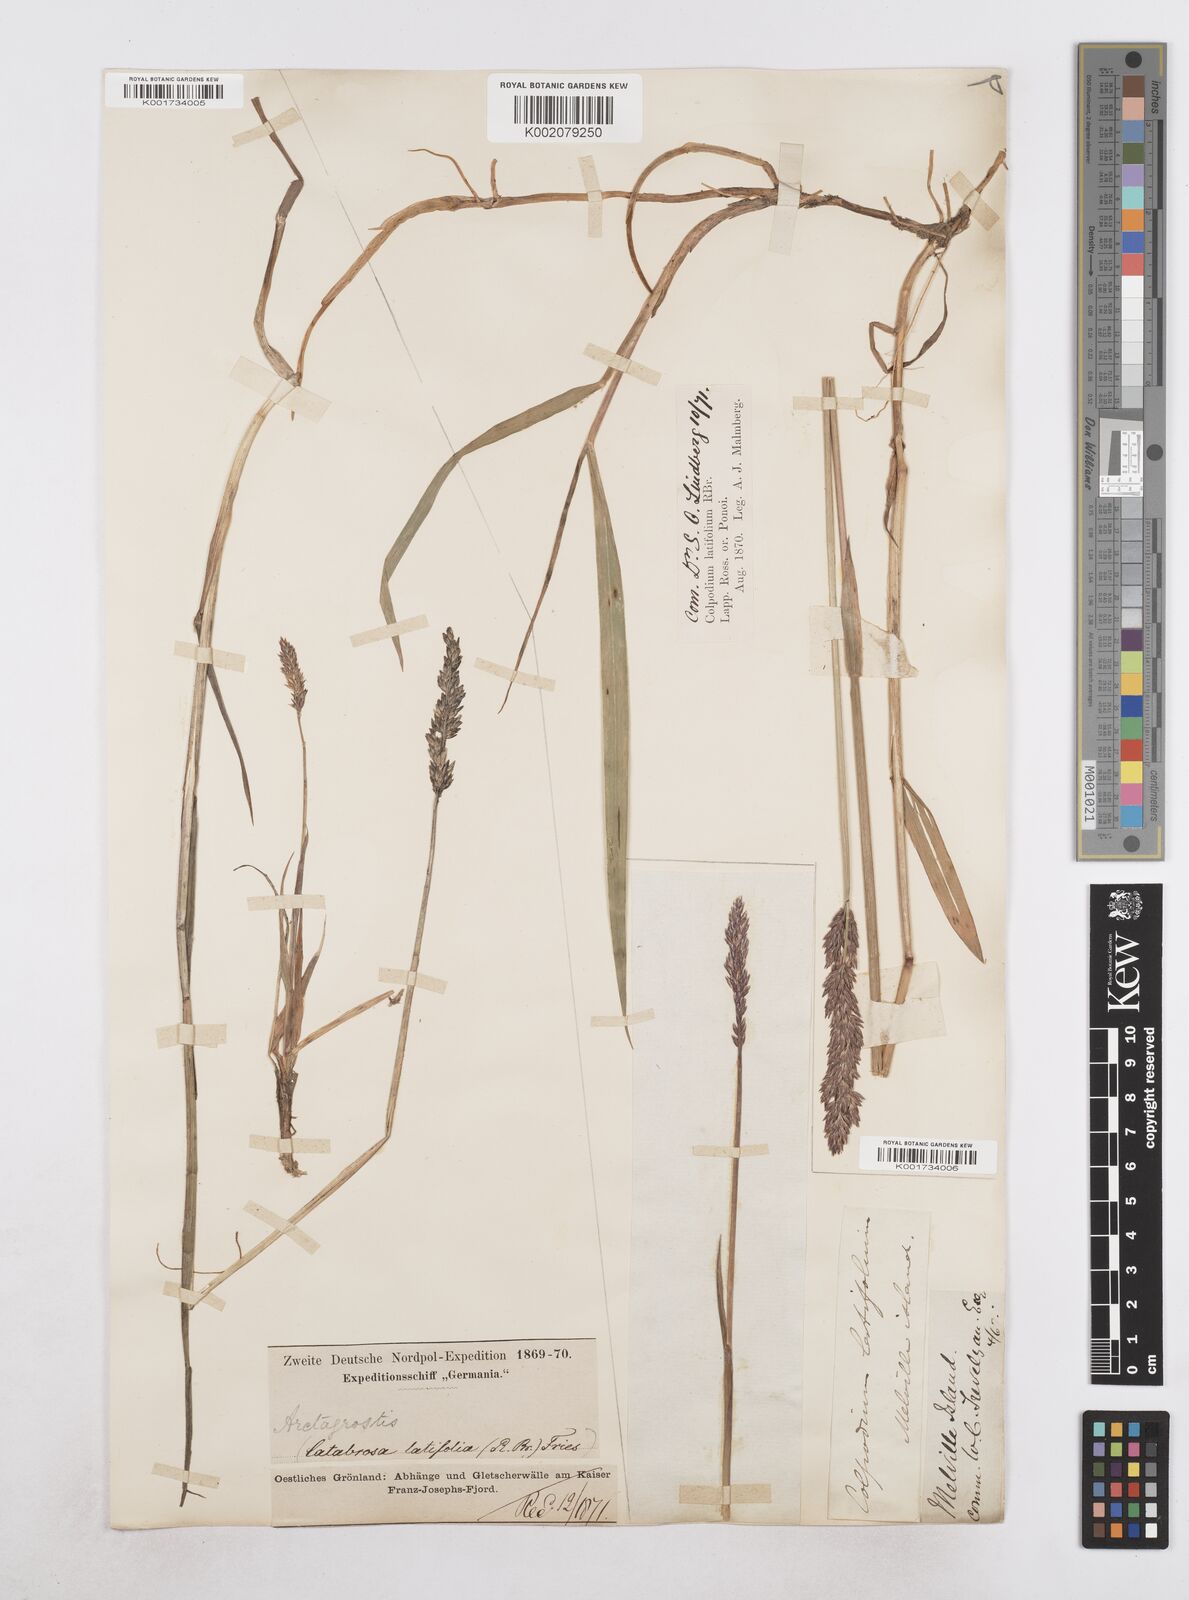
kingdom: Plantae
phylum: Tracheophyta
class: Liliopsida
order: Poales
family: Poaceae
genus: Arctagrostis
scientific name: Arctagrostis latifolia
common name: Arctic grass
